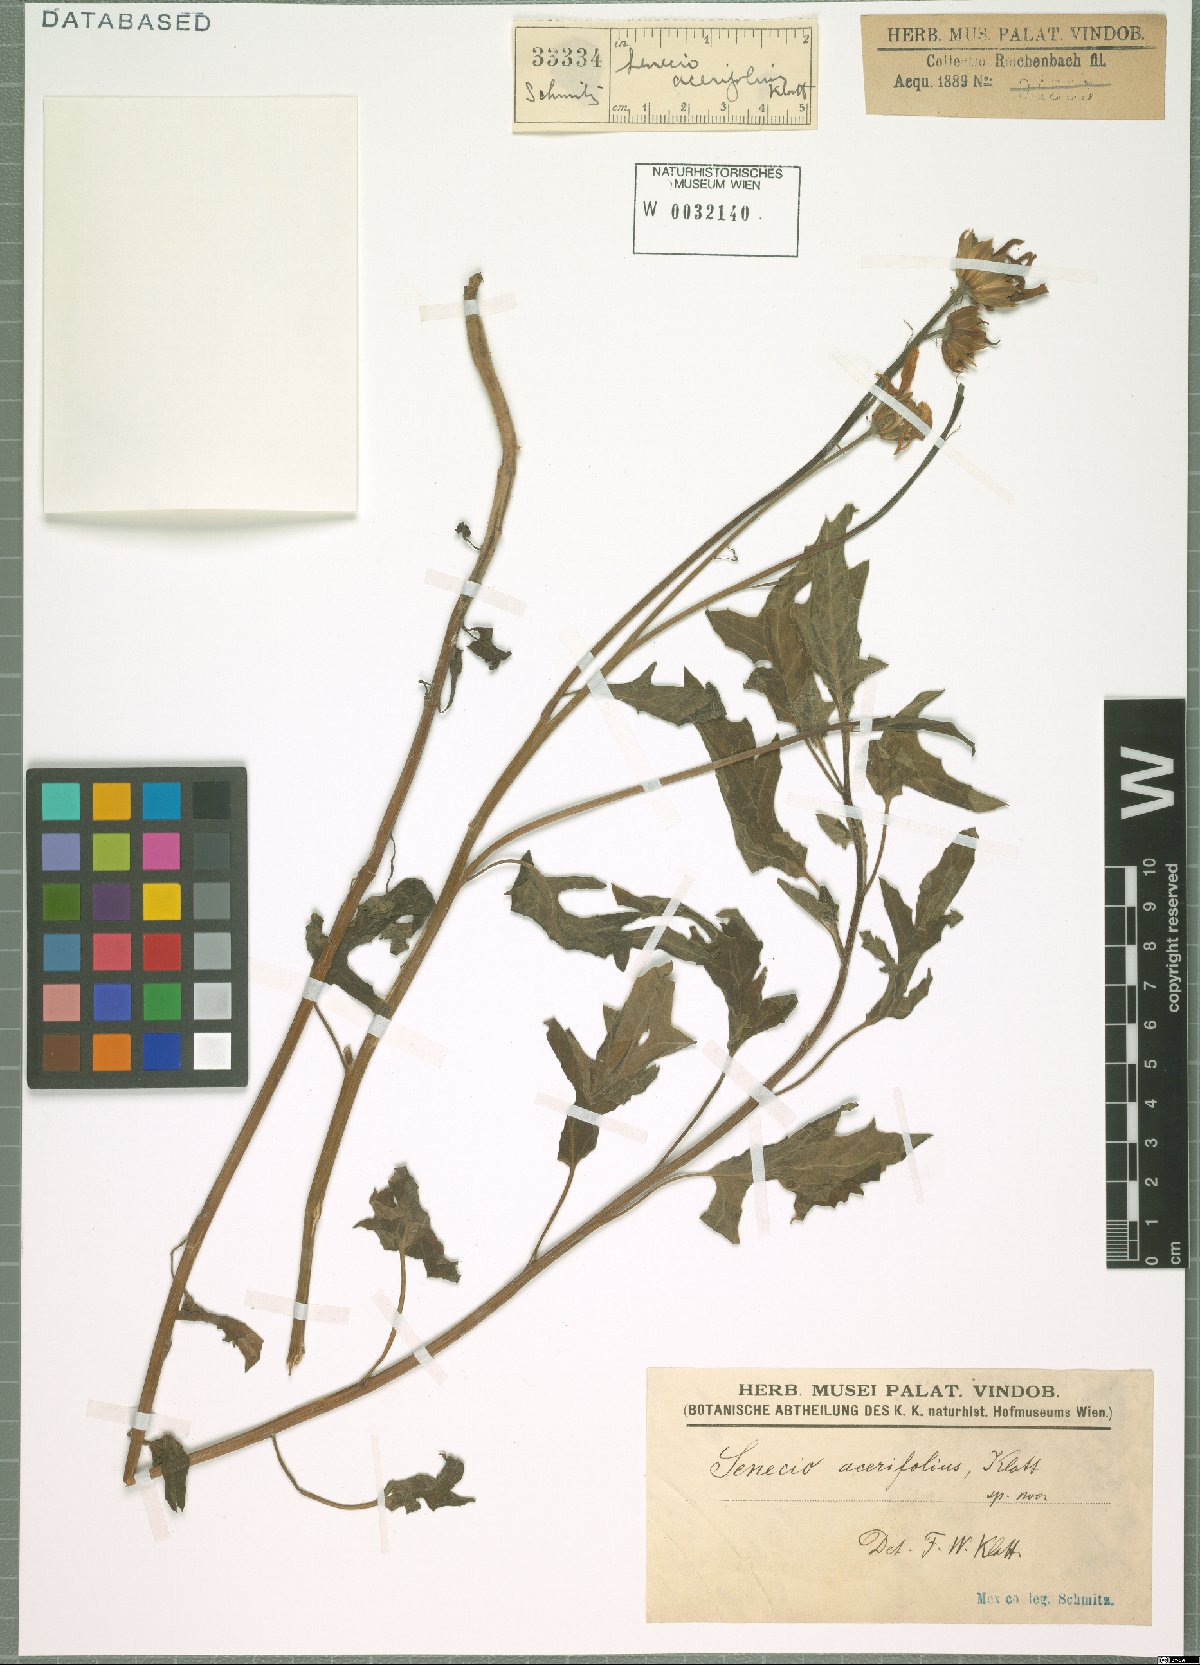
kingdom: Plantae
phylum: Tracheophyta
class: Magnoliopsida
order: Asterales
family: Asteraceae
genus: Senecio
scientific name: Senecio acerifolius
